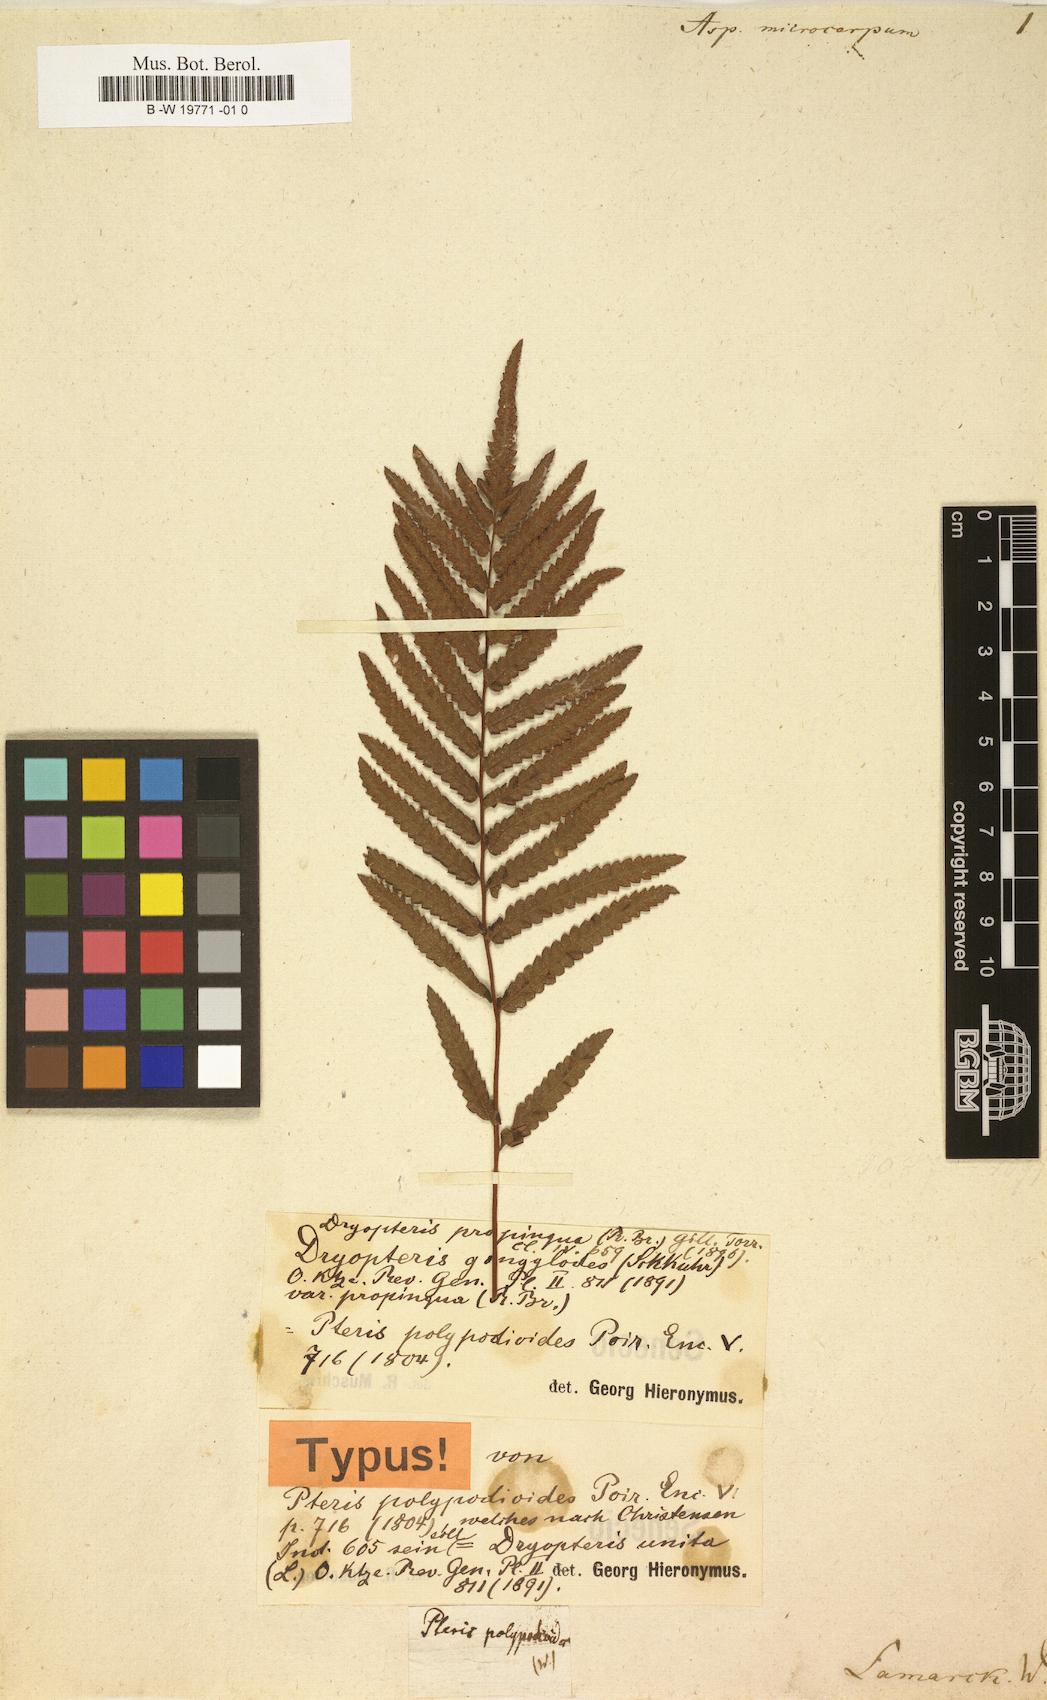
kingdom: Plantae
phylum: Tracheophyta
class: Polypodiopsida
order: Polypodiales
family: Polypodiaceae
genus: Microsorum
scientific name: Microsorum punctatum
